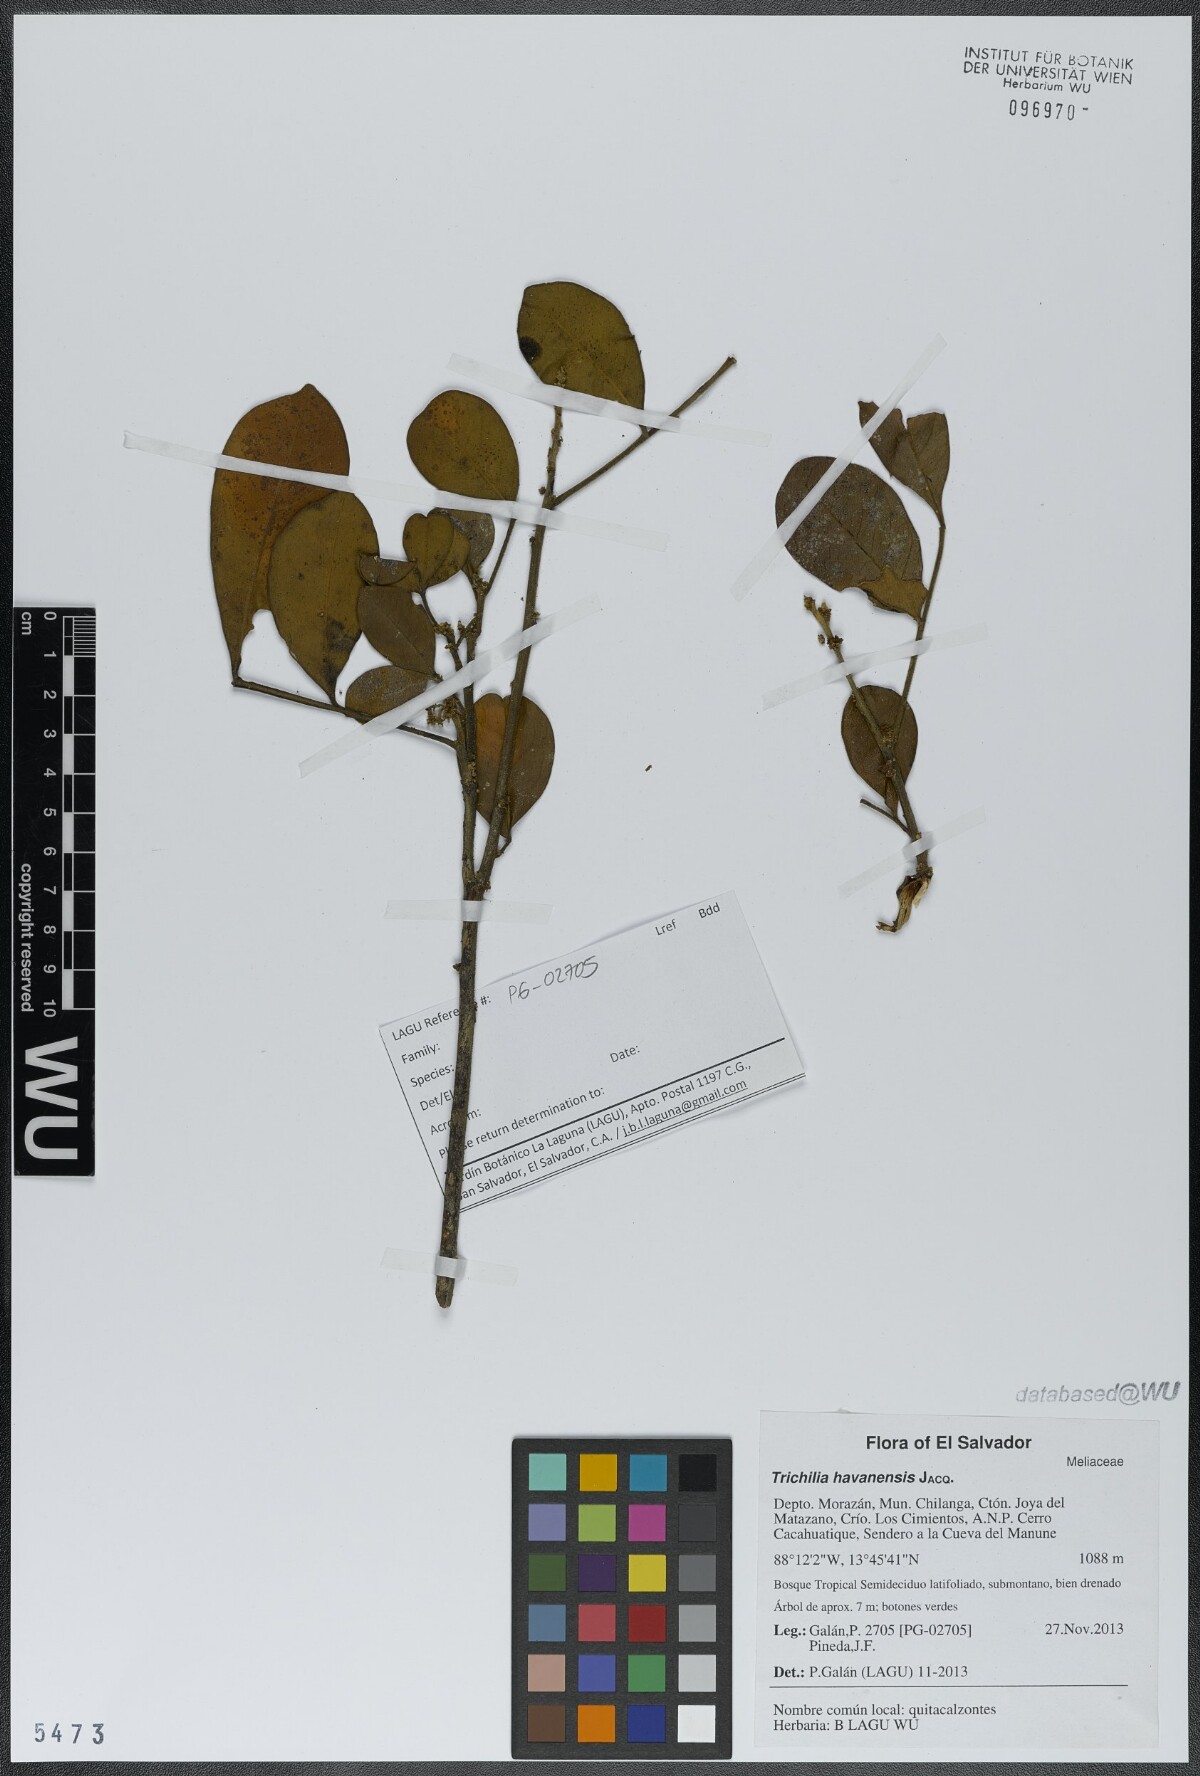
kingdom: Plantae
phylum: Tracheophyta
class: Magnoliopsida
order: Sapindales
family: Meliaceae
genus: Trichilia
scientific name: Trichilia havanensis
